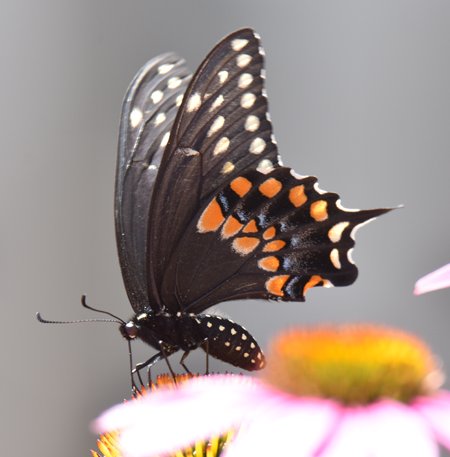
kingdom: Animalia
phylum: Arthropoda
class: Insecta
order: Lepidoptera
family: Papilionidae
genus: Papilio
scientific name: Papilio polyxenes
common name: Black Swallowtail
